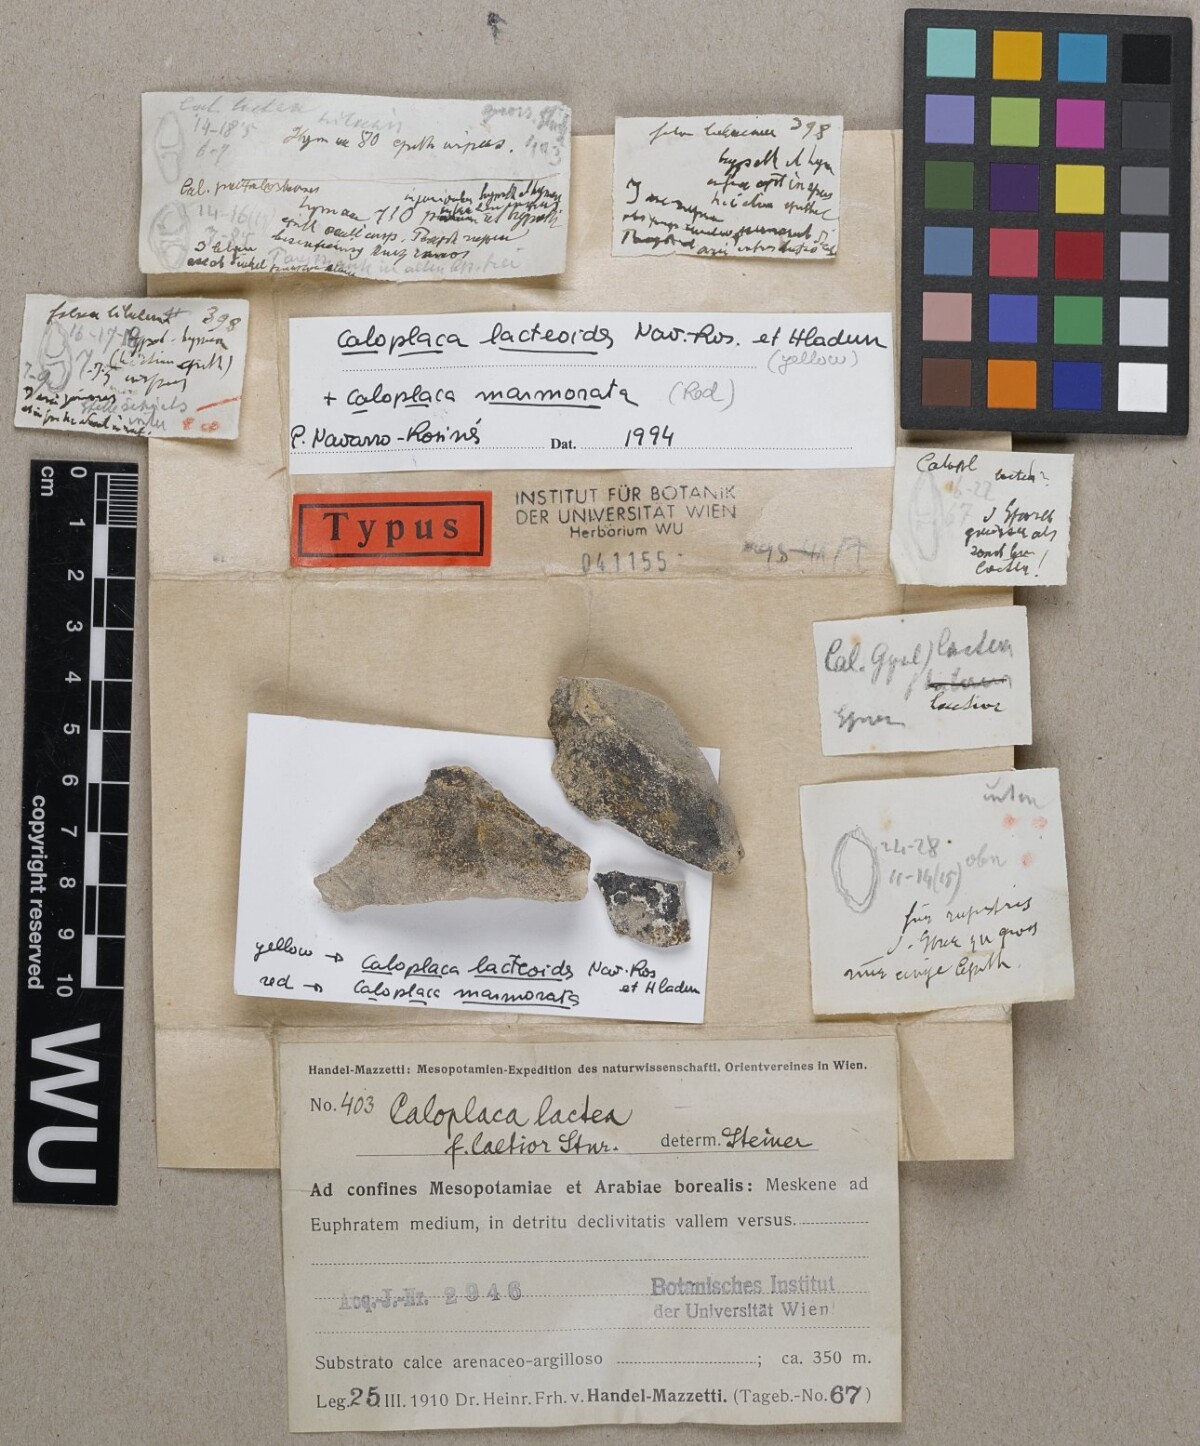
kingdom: Fungi
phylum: Ascomycota
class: Lecanoromycetes
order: Teloschistales
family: Teloschistaceae
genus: Caloplaca
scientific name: Caloplaca lactea
